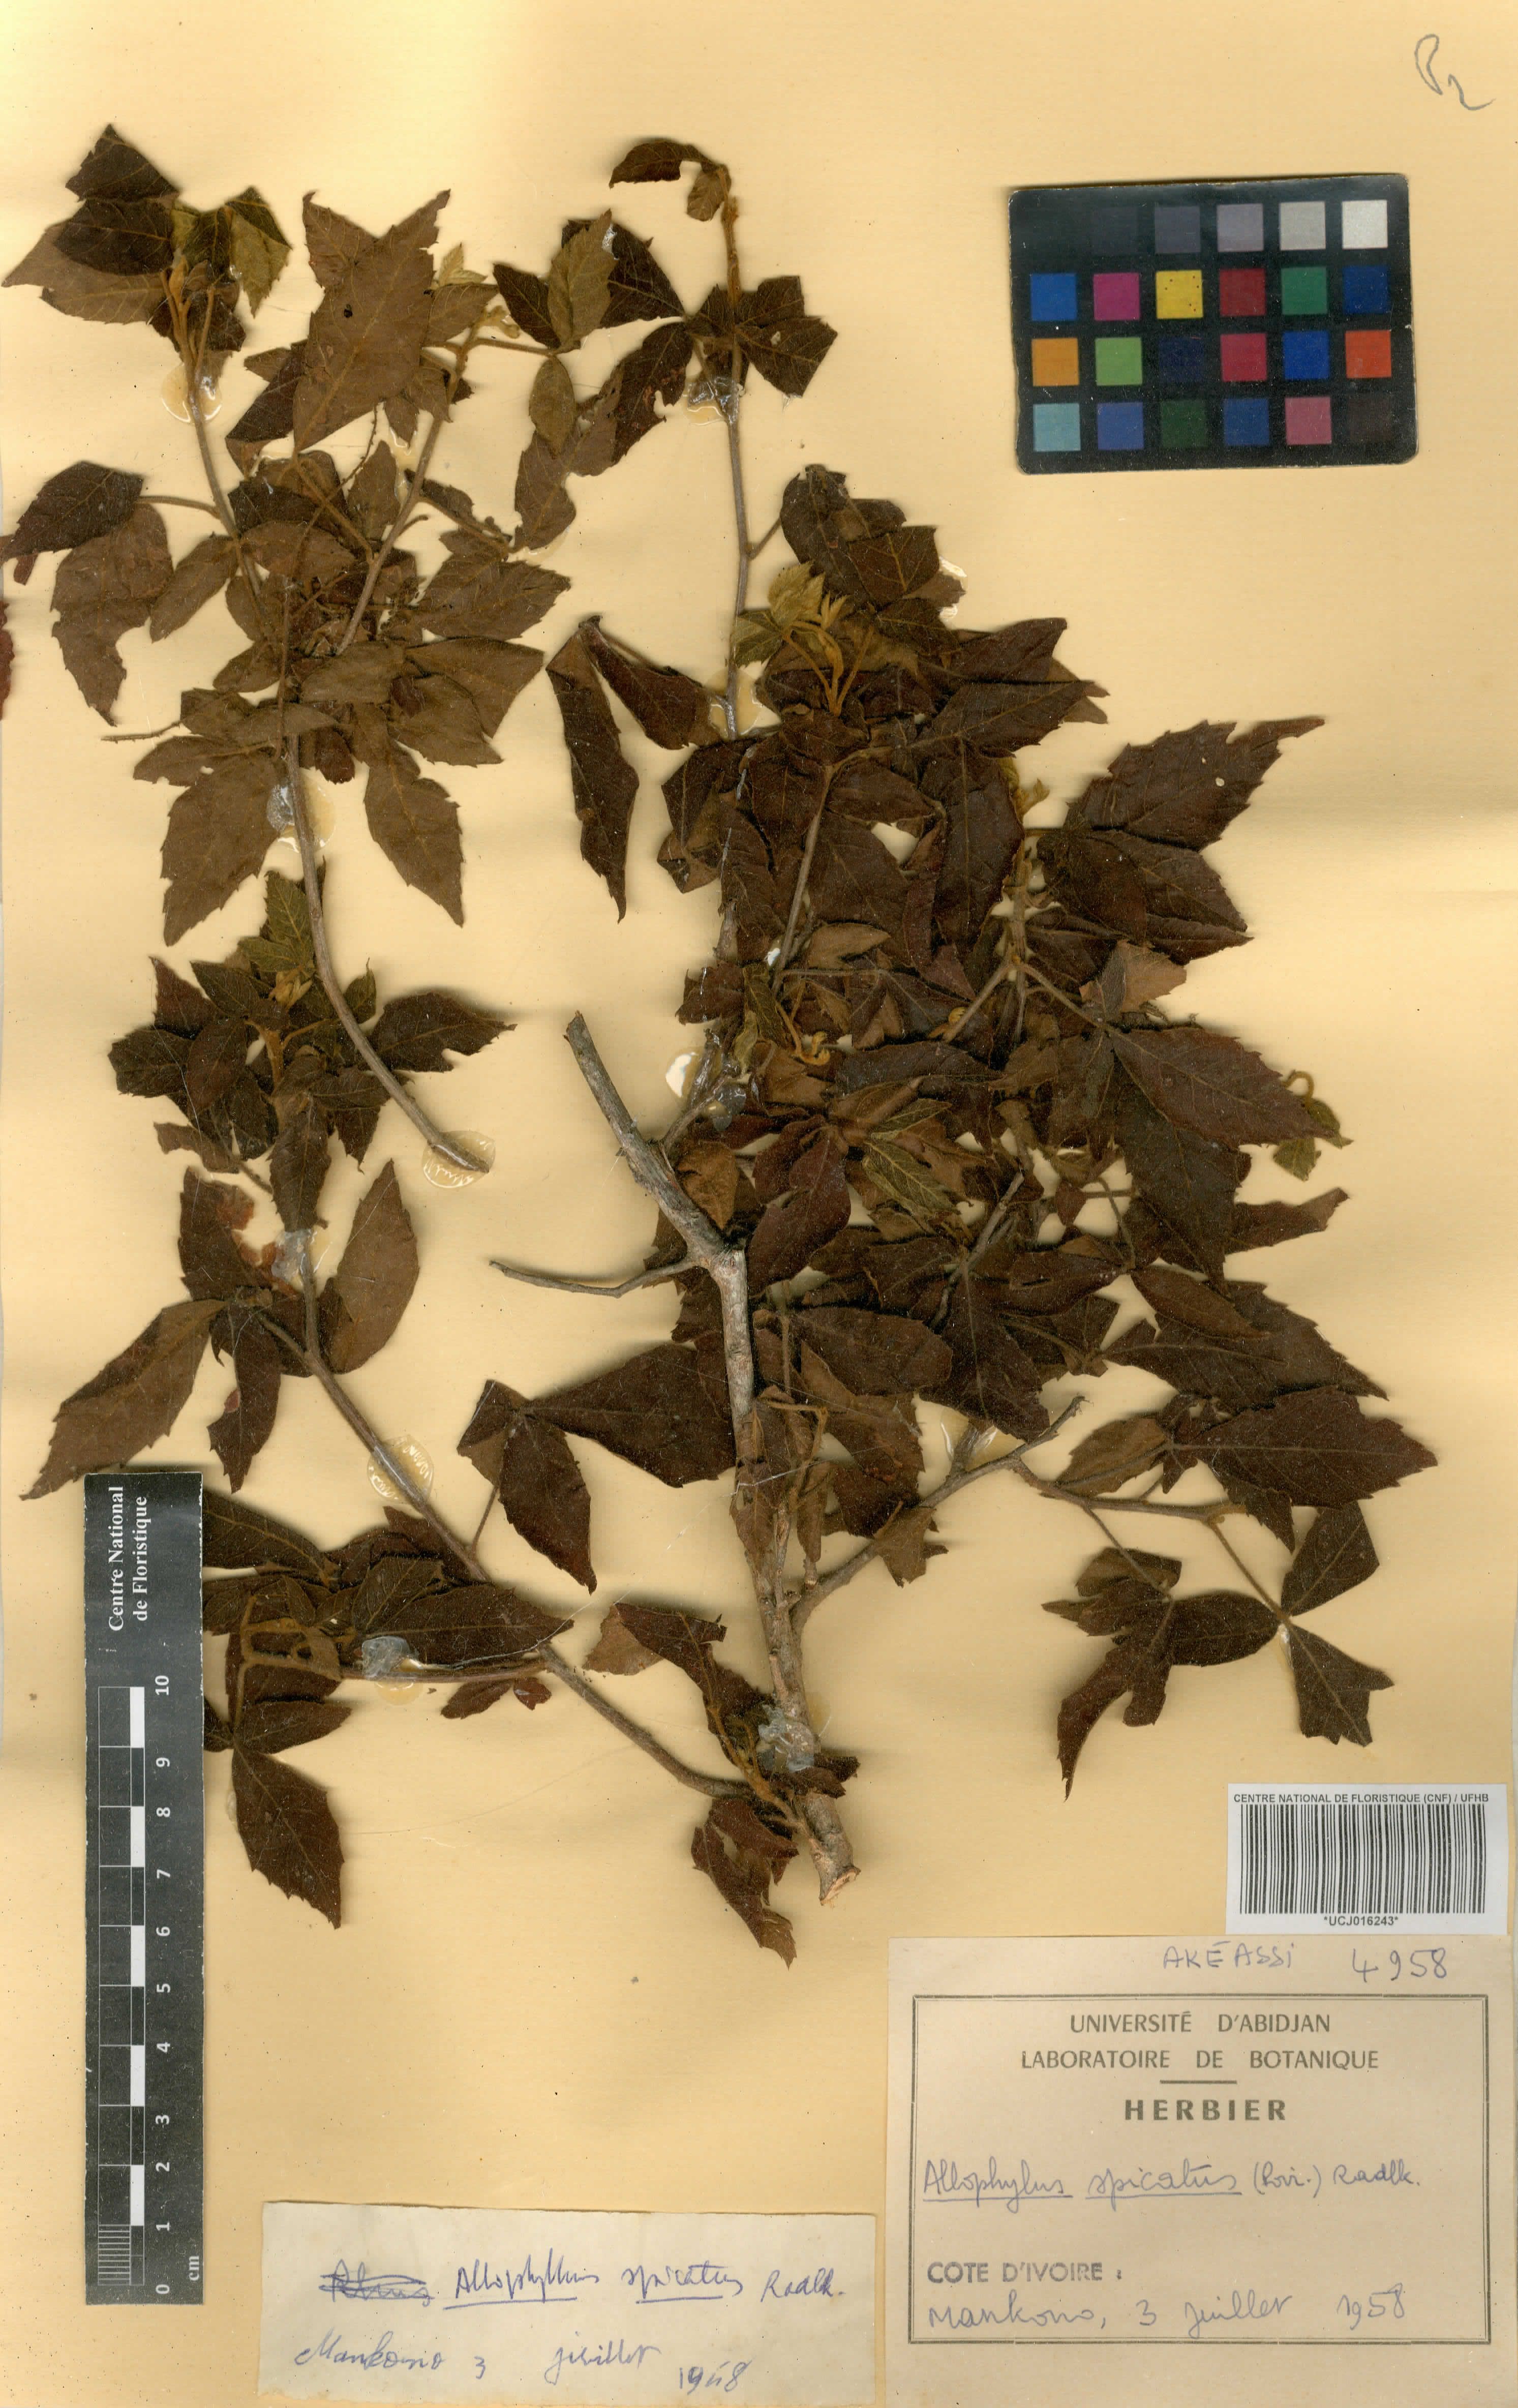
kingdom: Plantae
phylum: Tracheophyta
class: Magnoliopsida
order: Sapindales
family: Sapindaceae
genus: Allophylus
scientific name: Allophylus spicatus
